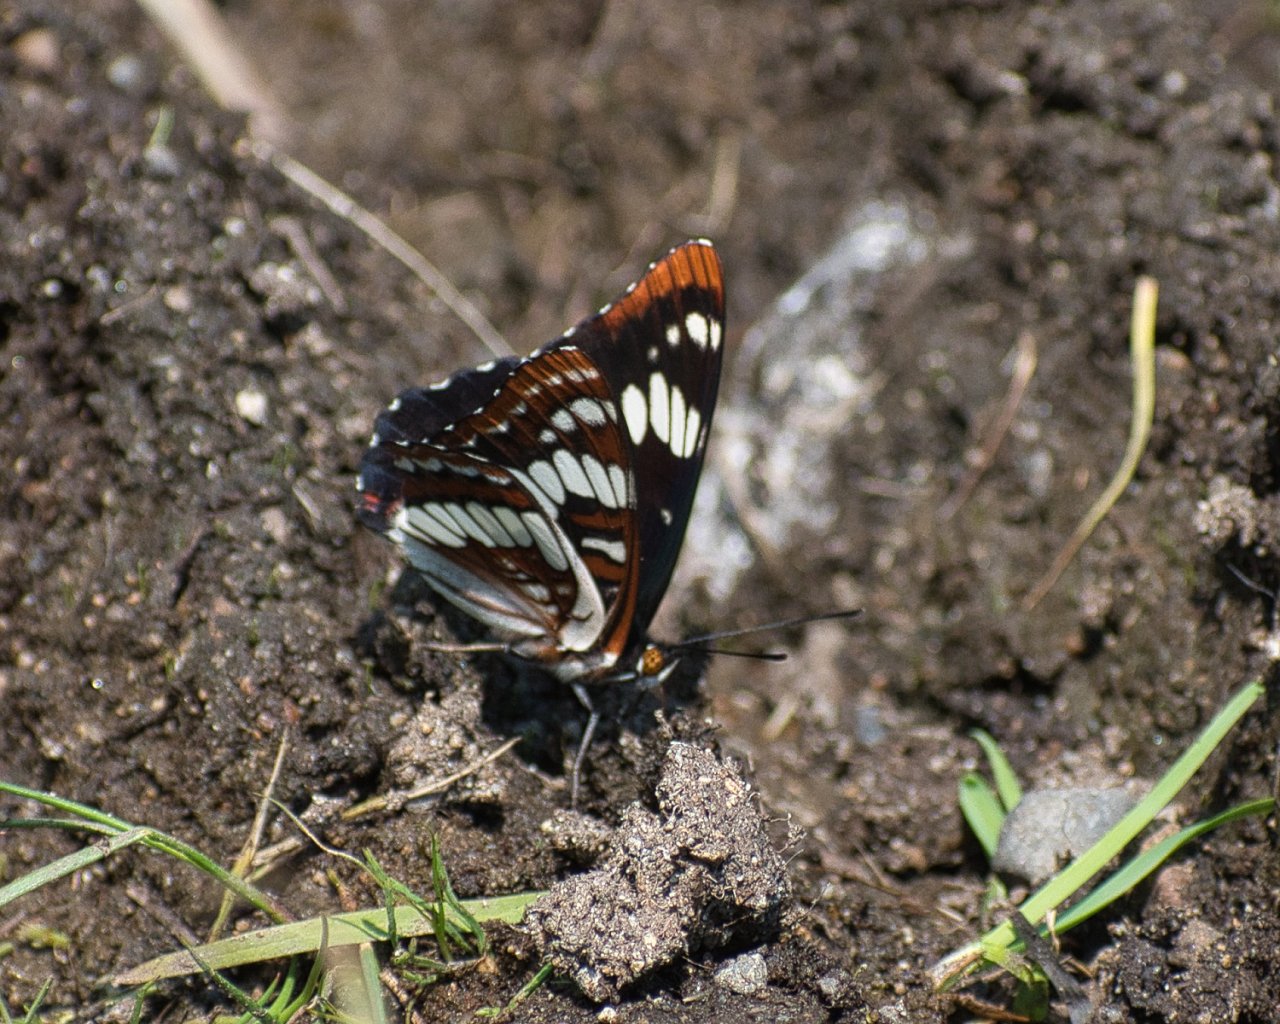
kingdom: Animalia
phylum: Arthropoda
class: Insecta
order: Lepidoptera
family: Nymphalidae
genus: Limenitis
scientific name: Limenitis lorquini
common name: Lorquin's Admiral
